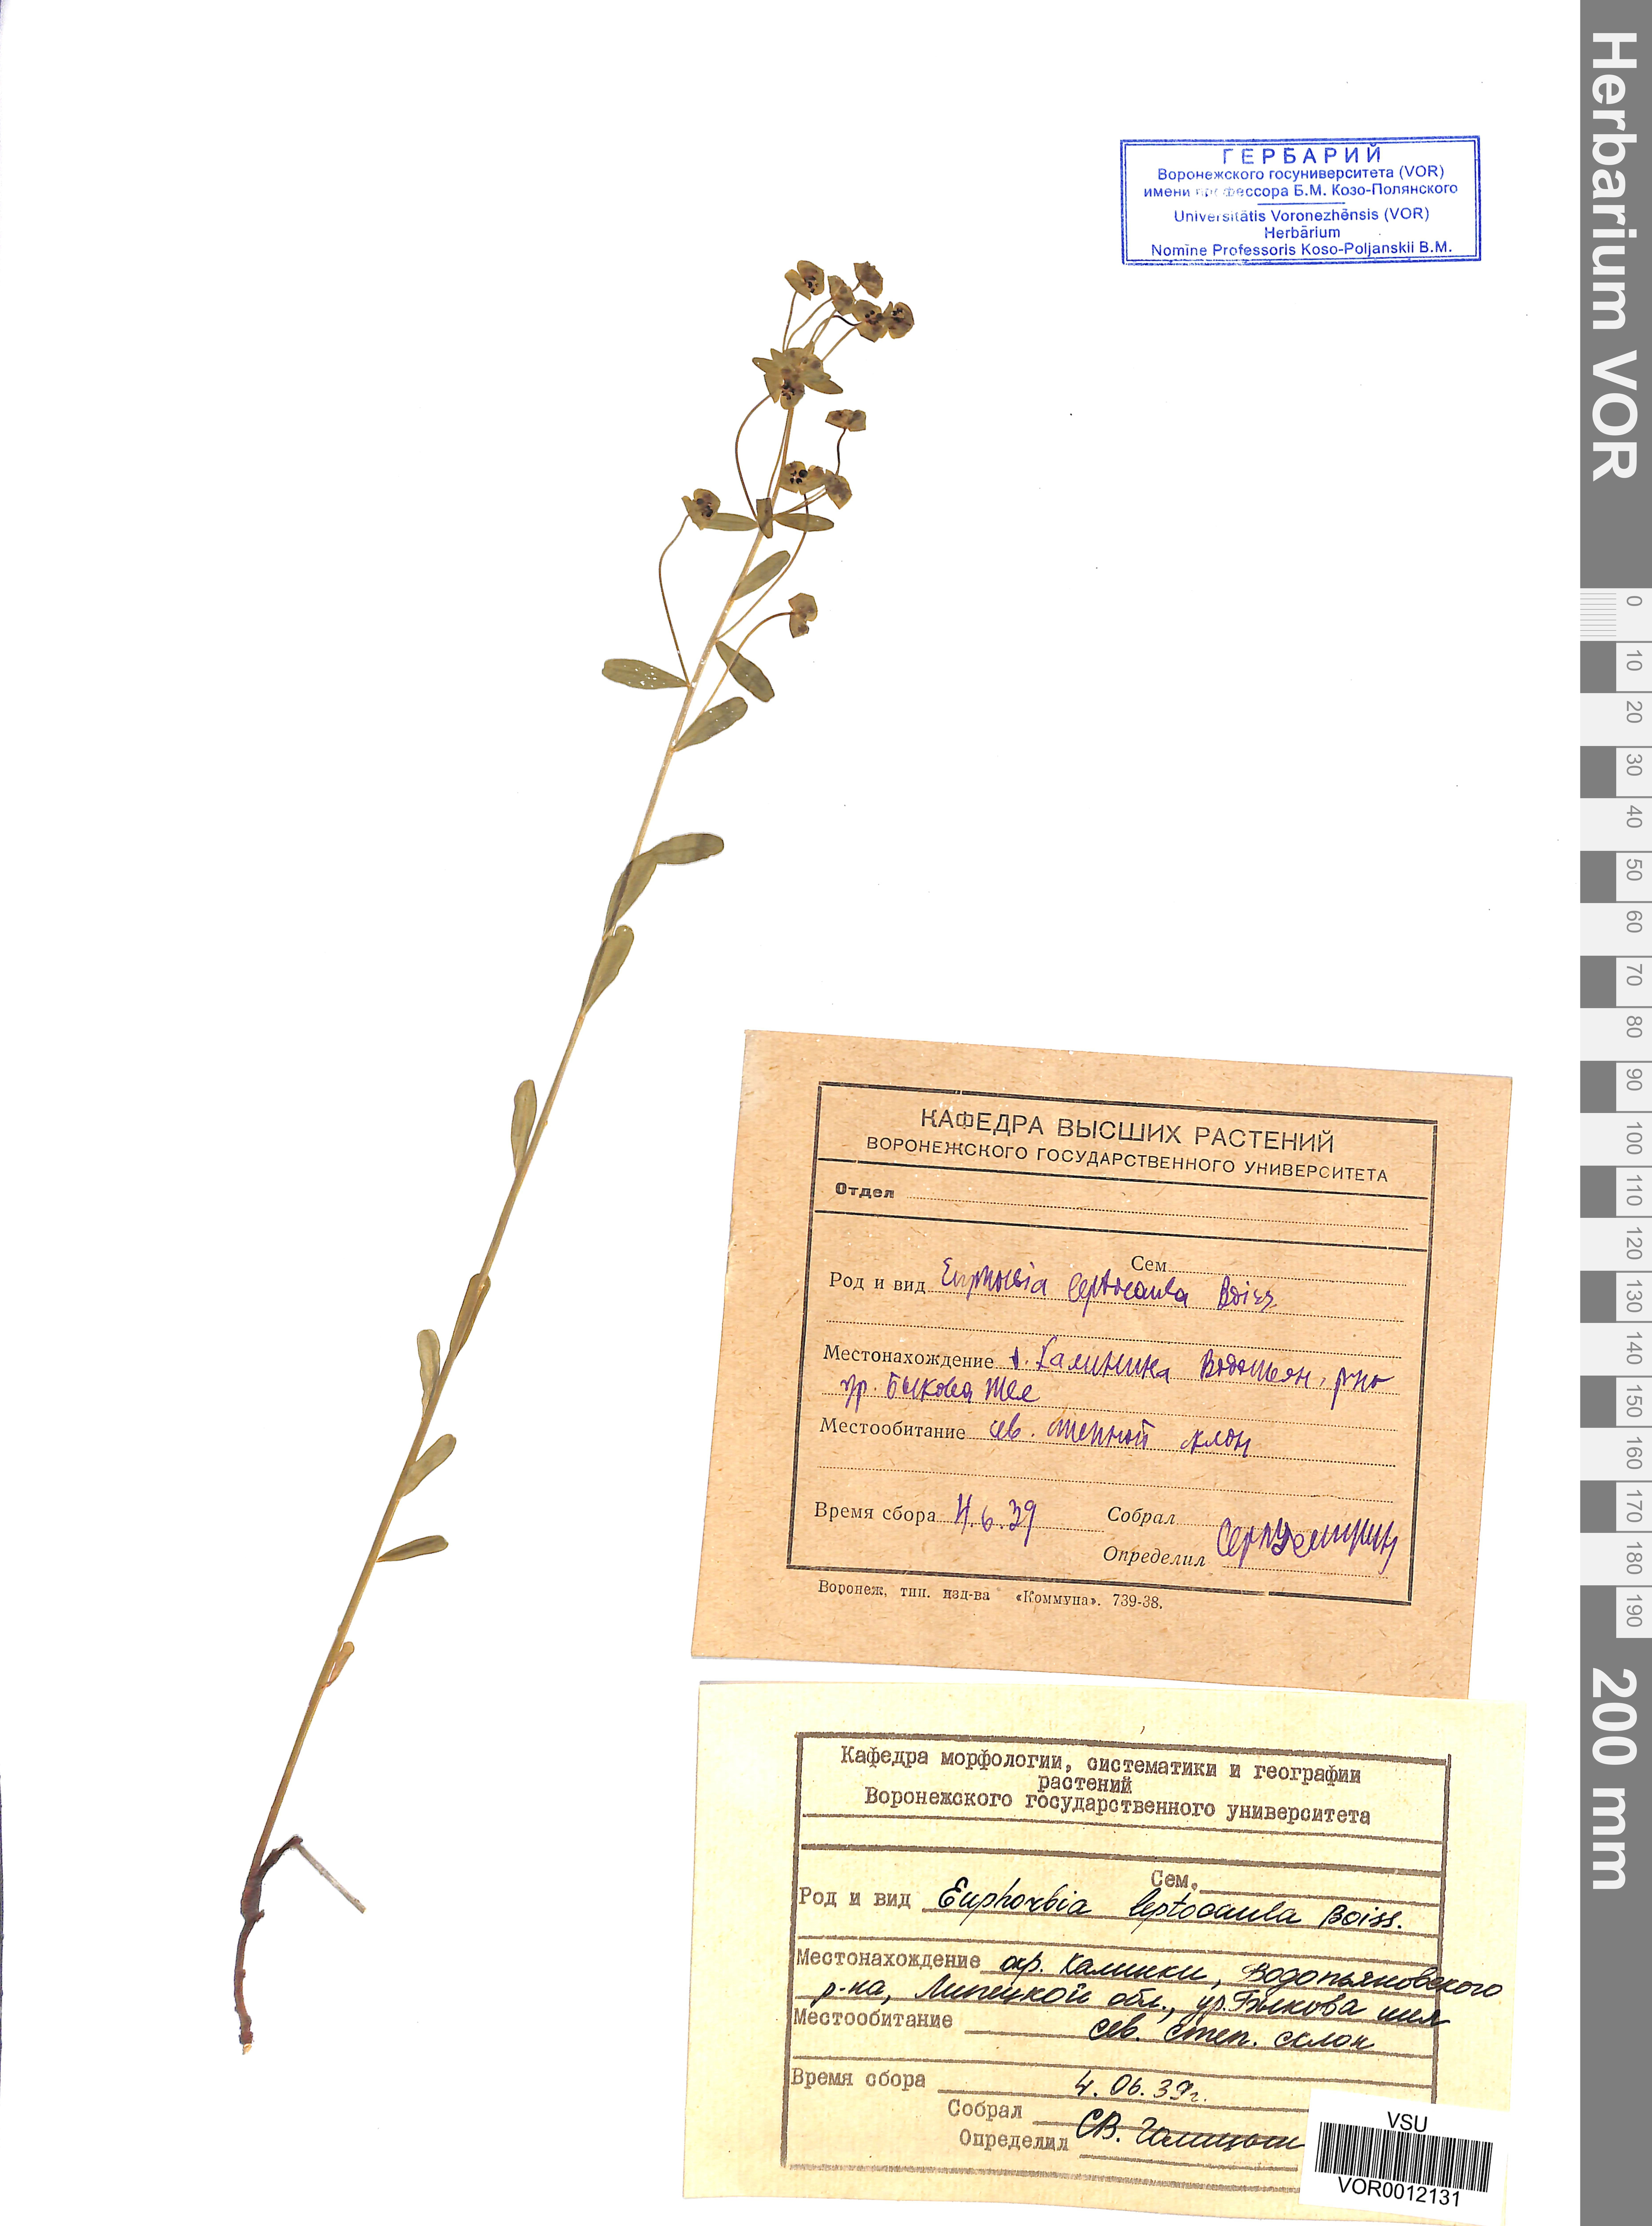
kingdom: Plantae
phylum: Tracheophyta
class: Magnoliopsida
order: Malpighiales
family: Euphorbiaceae
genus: Euphorbia
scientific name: Euphorbia leptocaula
